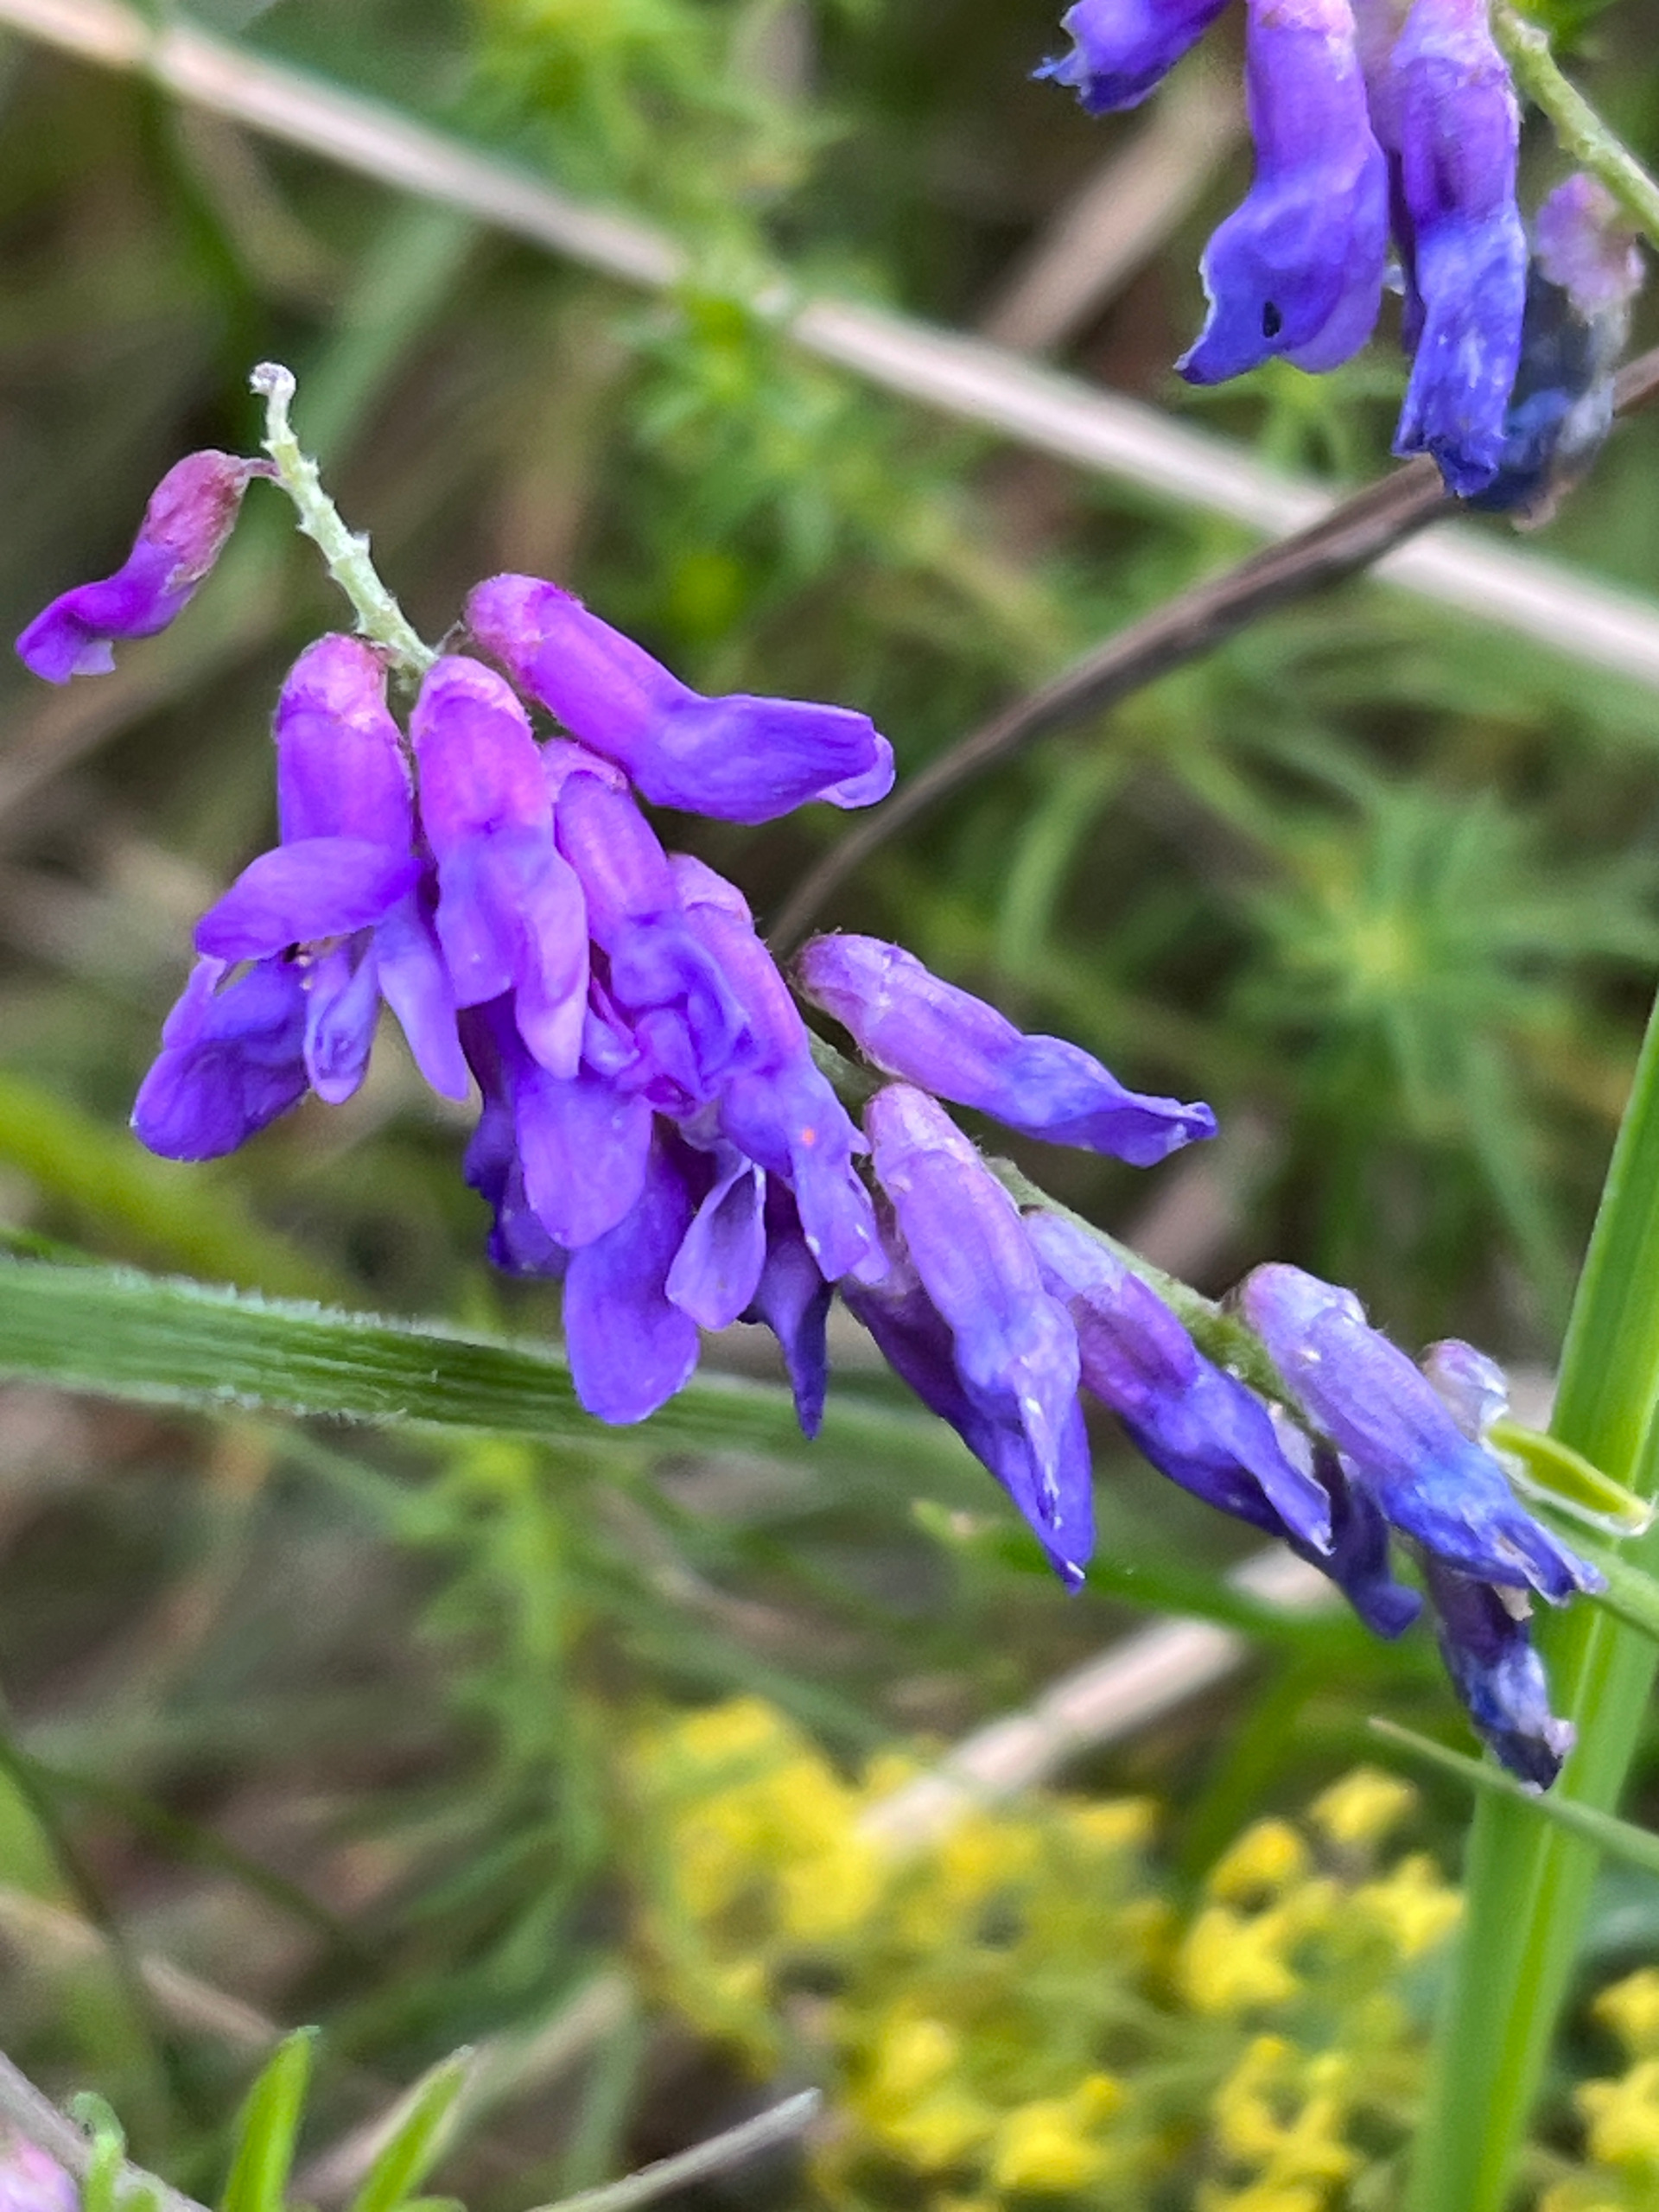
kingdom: Plantae
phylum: Tracheophyta
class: Magnoliopsida
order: Fabales
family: Fabaceae
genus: Vicia
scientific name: Vicia cracca
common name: Muse-vikke
